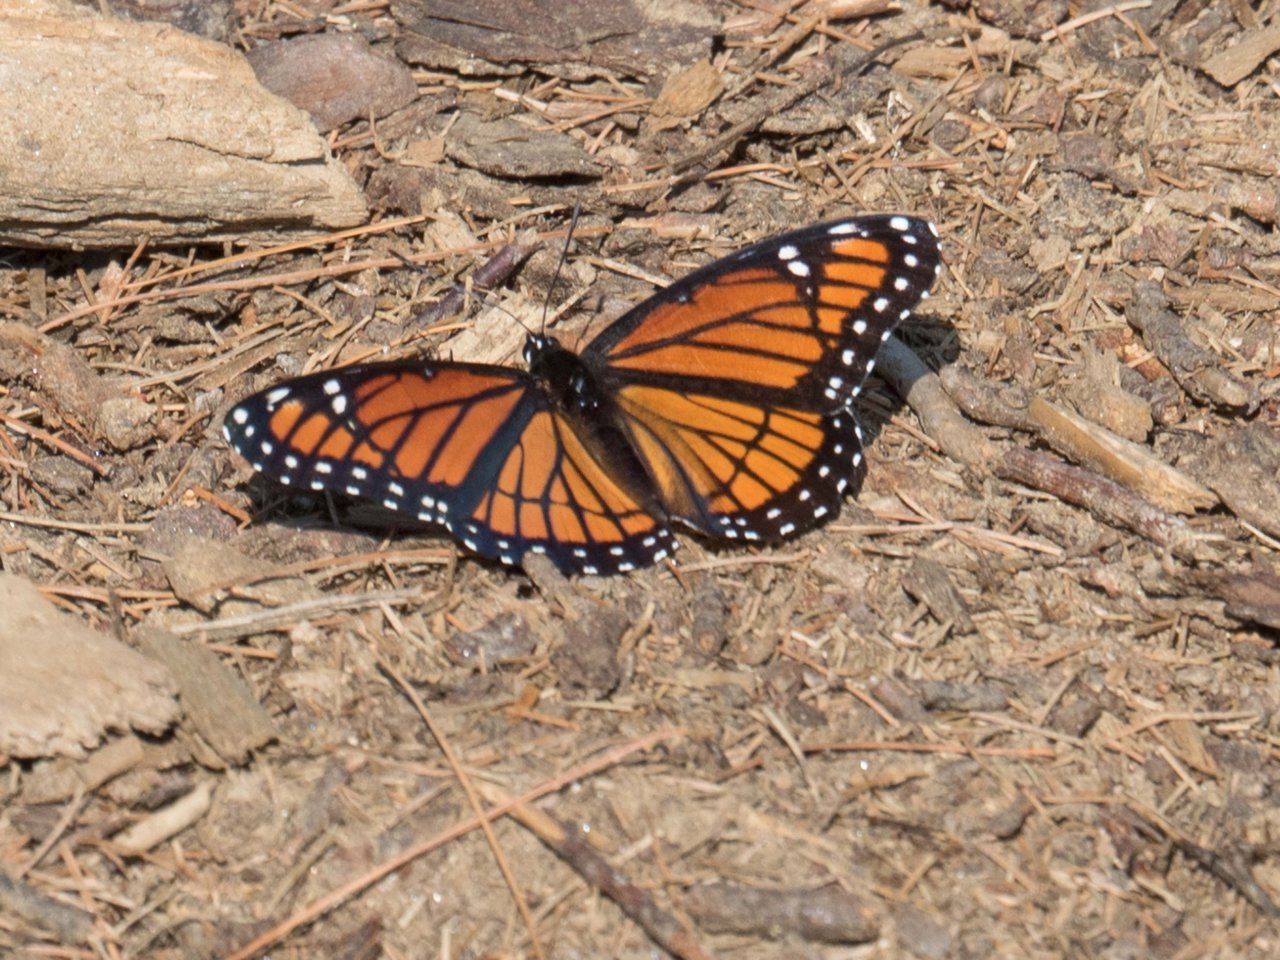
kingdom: Animalia
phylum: Arthropoda
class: Insecta
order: Lepidoptera
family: Nymphalidae
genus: Limenitis
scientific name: Limenitis archippus
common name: Viceroy
